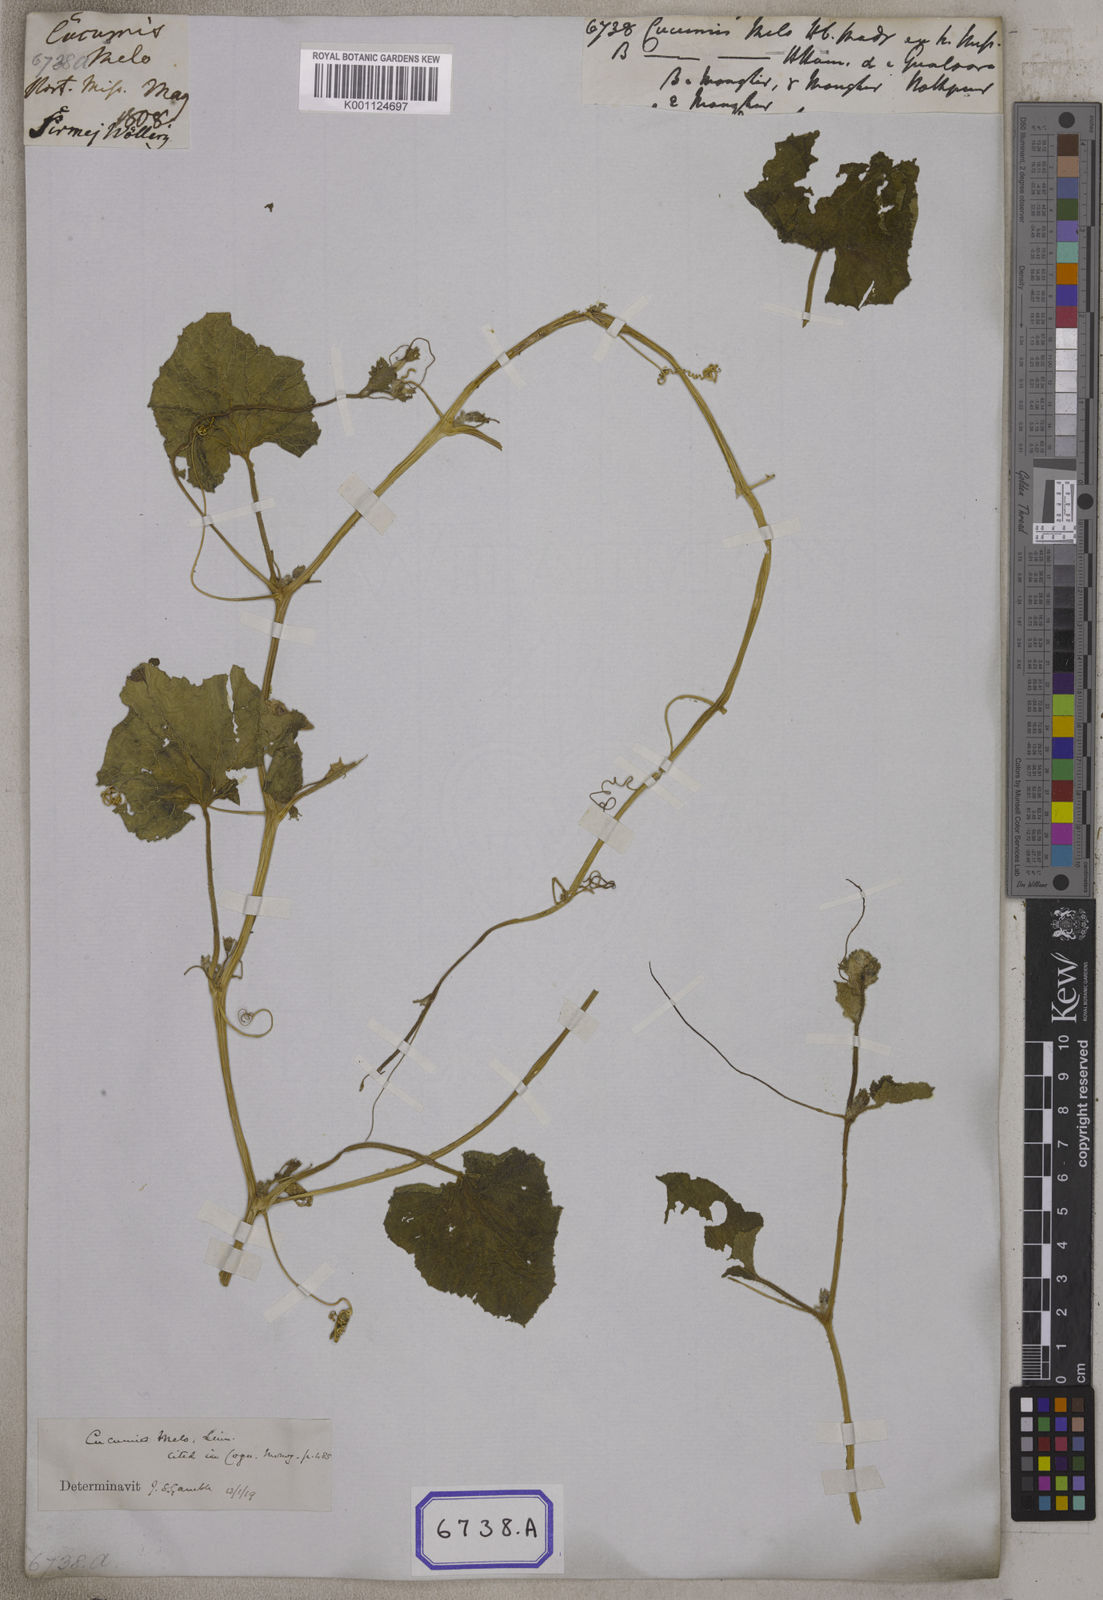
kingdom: Plantae
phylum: Tracheophyta
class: Magnoliopsida
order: Cucurbitales
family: Cucurbitaceae
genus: Cucumis
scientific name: Cucumis melo
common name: Melon
